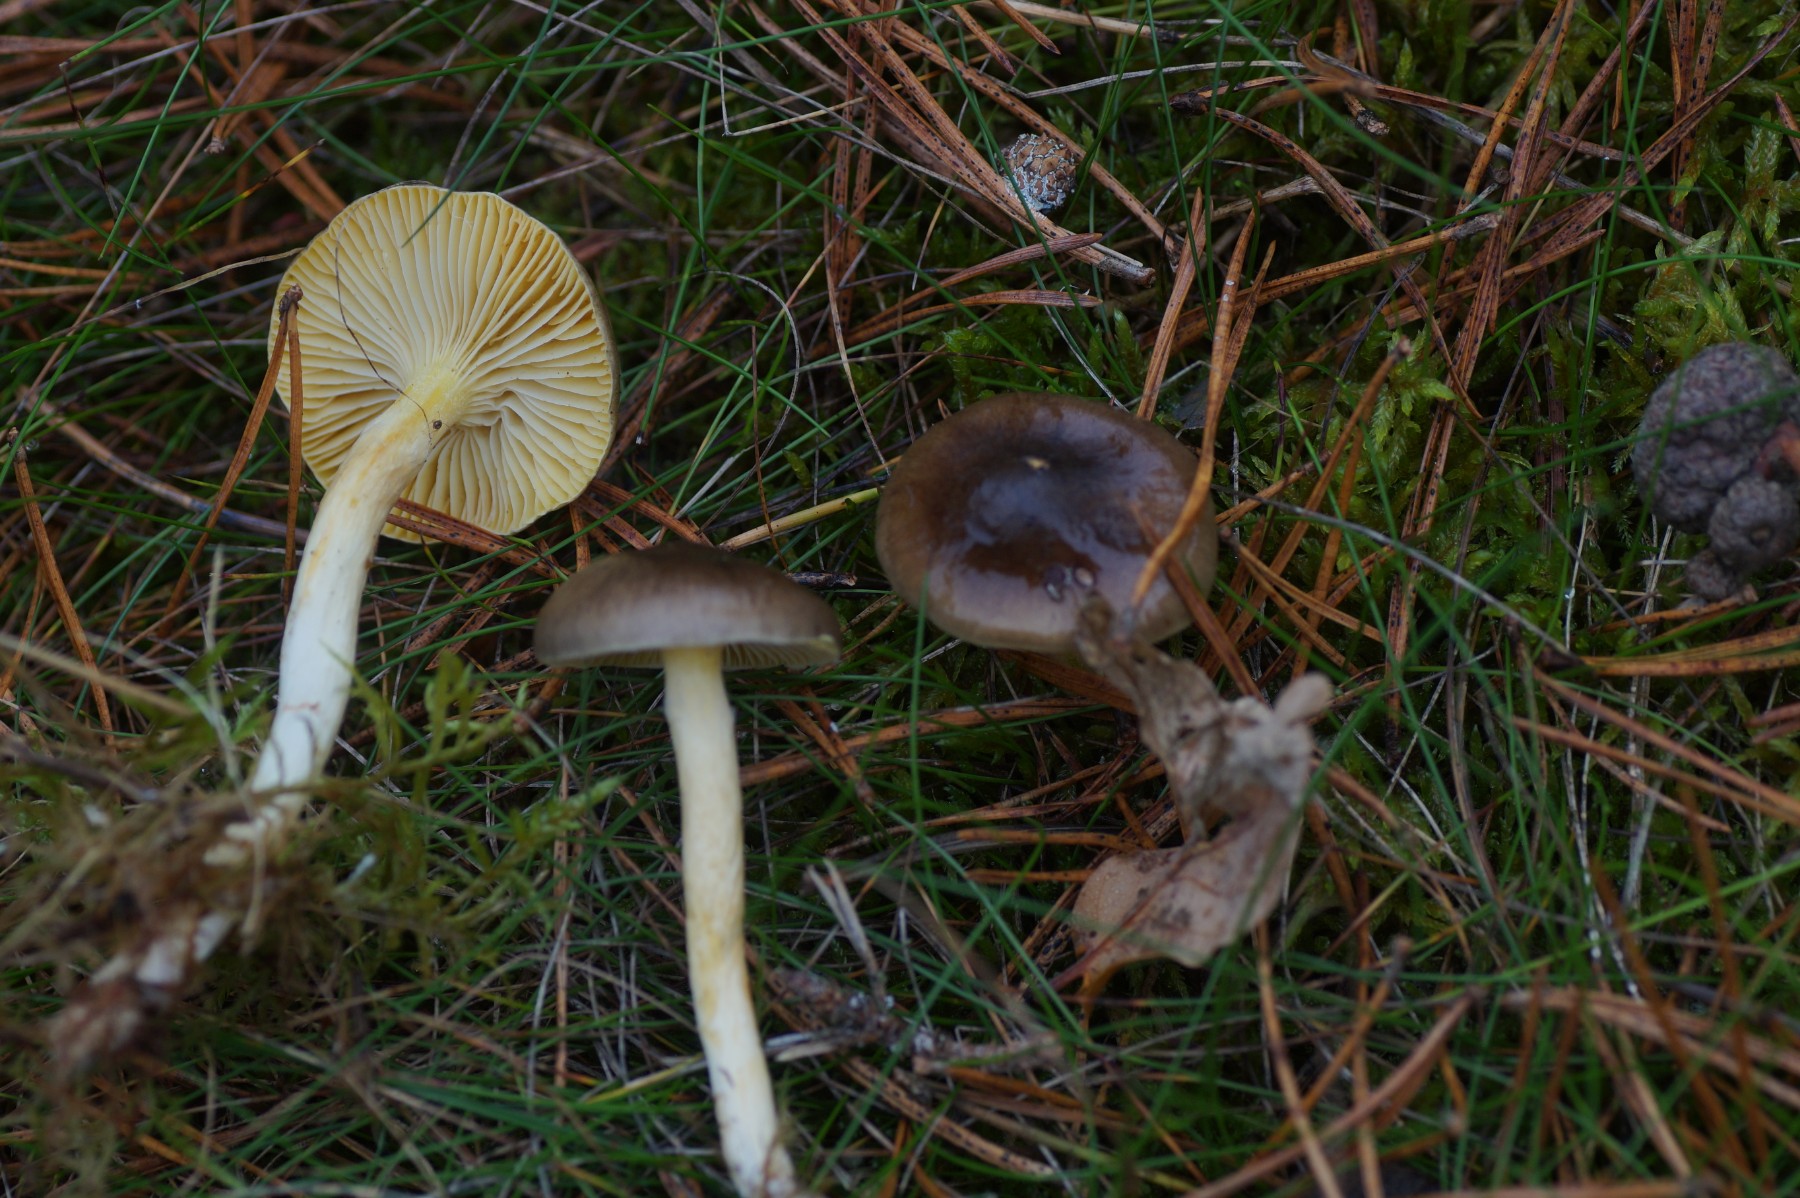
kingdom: Fungi
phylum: Basidiomycota
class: Agaricomycetes
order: Agaricales
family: Hygrophoraceae
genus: Hygrophorus
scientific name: Hygrophorus hypothejus
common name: frost-sneglehat
